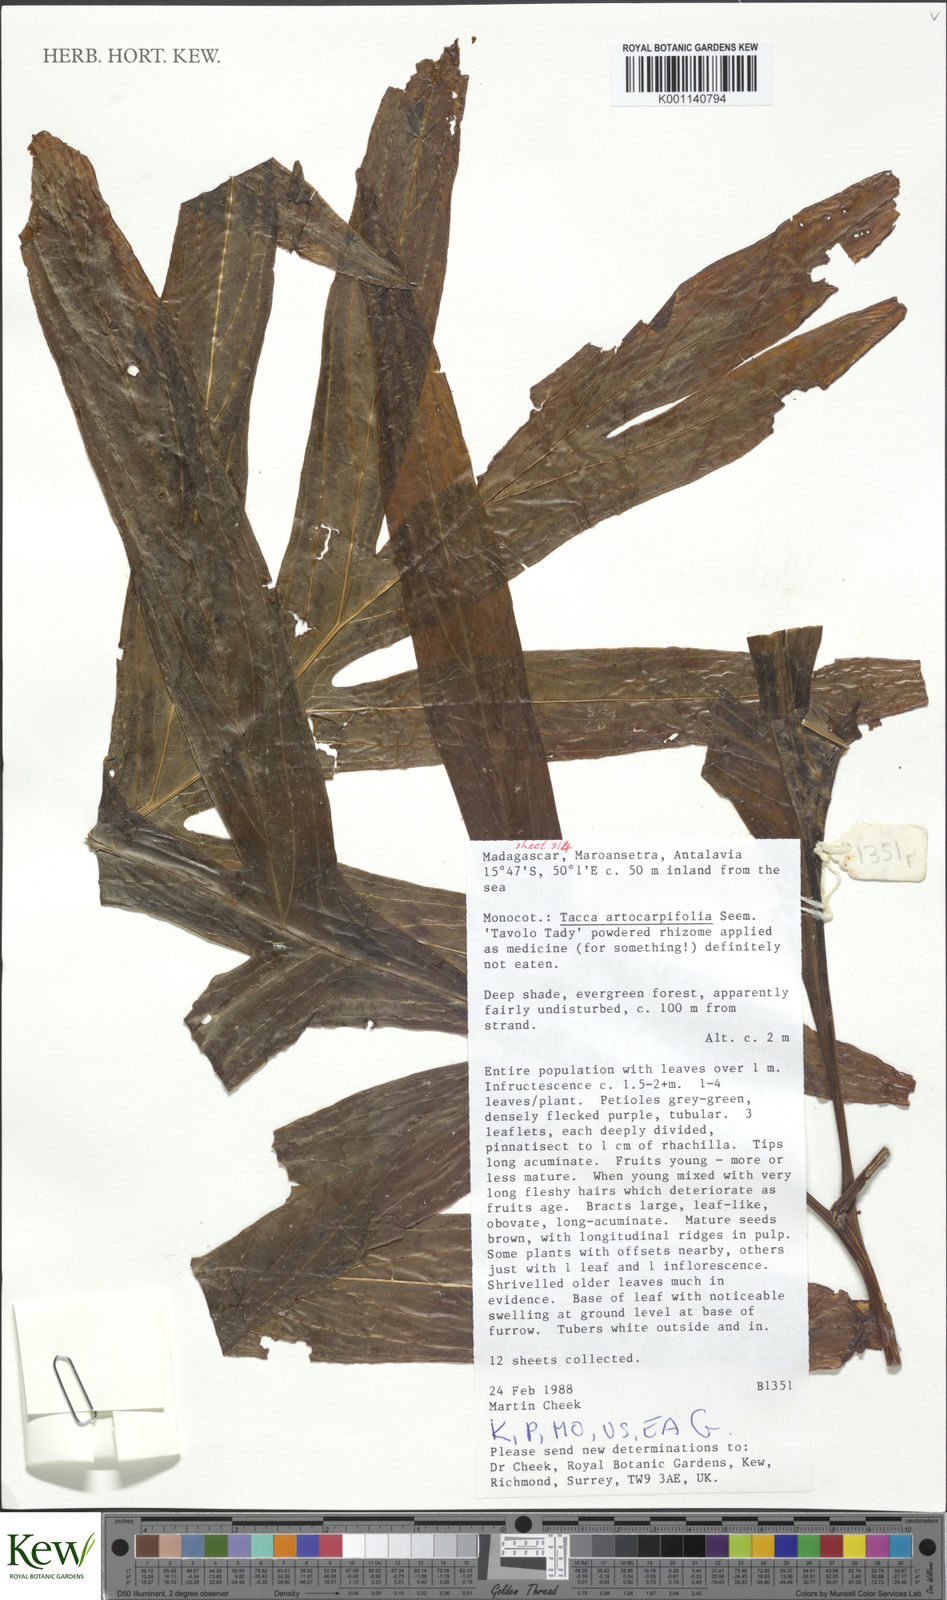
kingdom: Plantae
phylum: Tracheophyta
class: Liliopsida
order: Dioscoreales
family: Dioscoreaceae
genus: Tacca
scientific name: Tacca leontopetaloides
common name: Arrowroot
